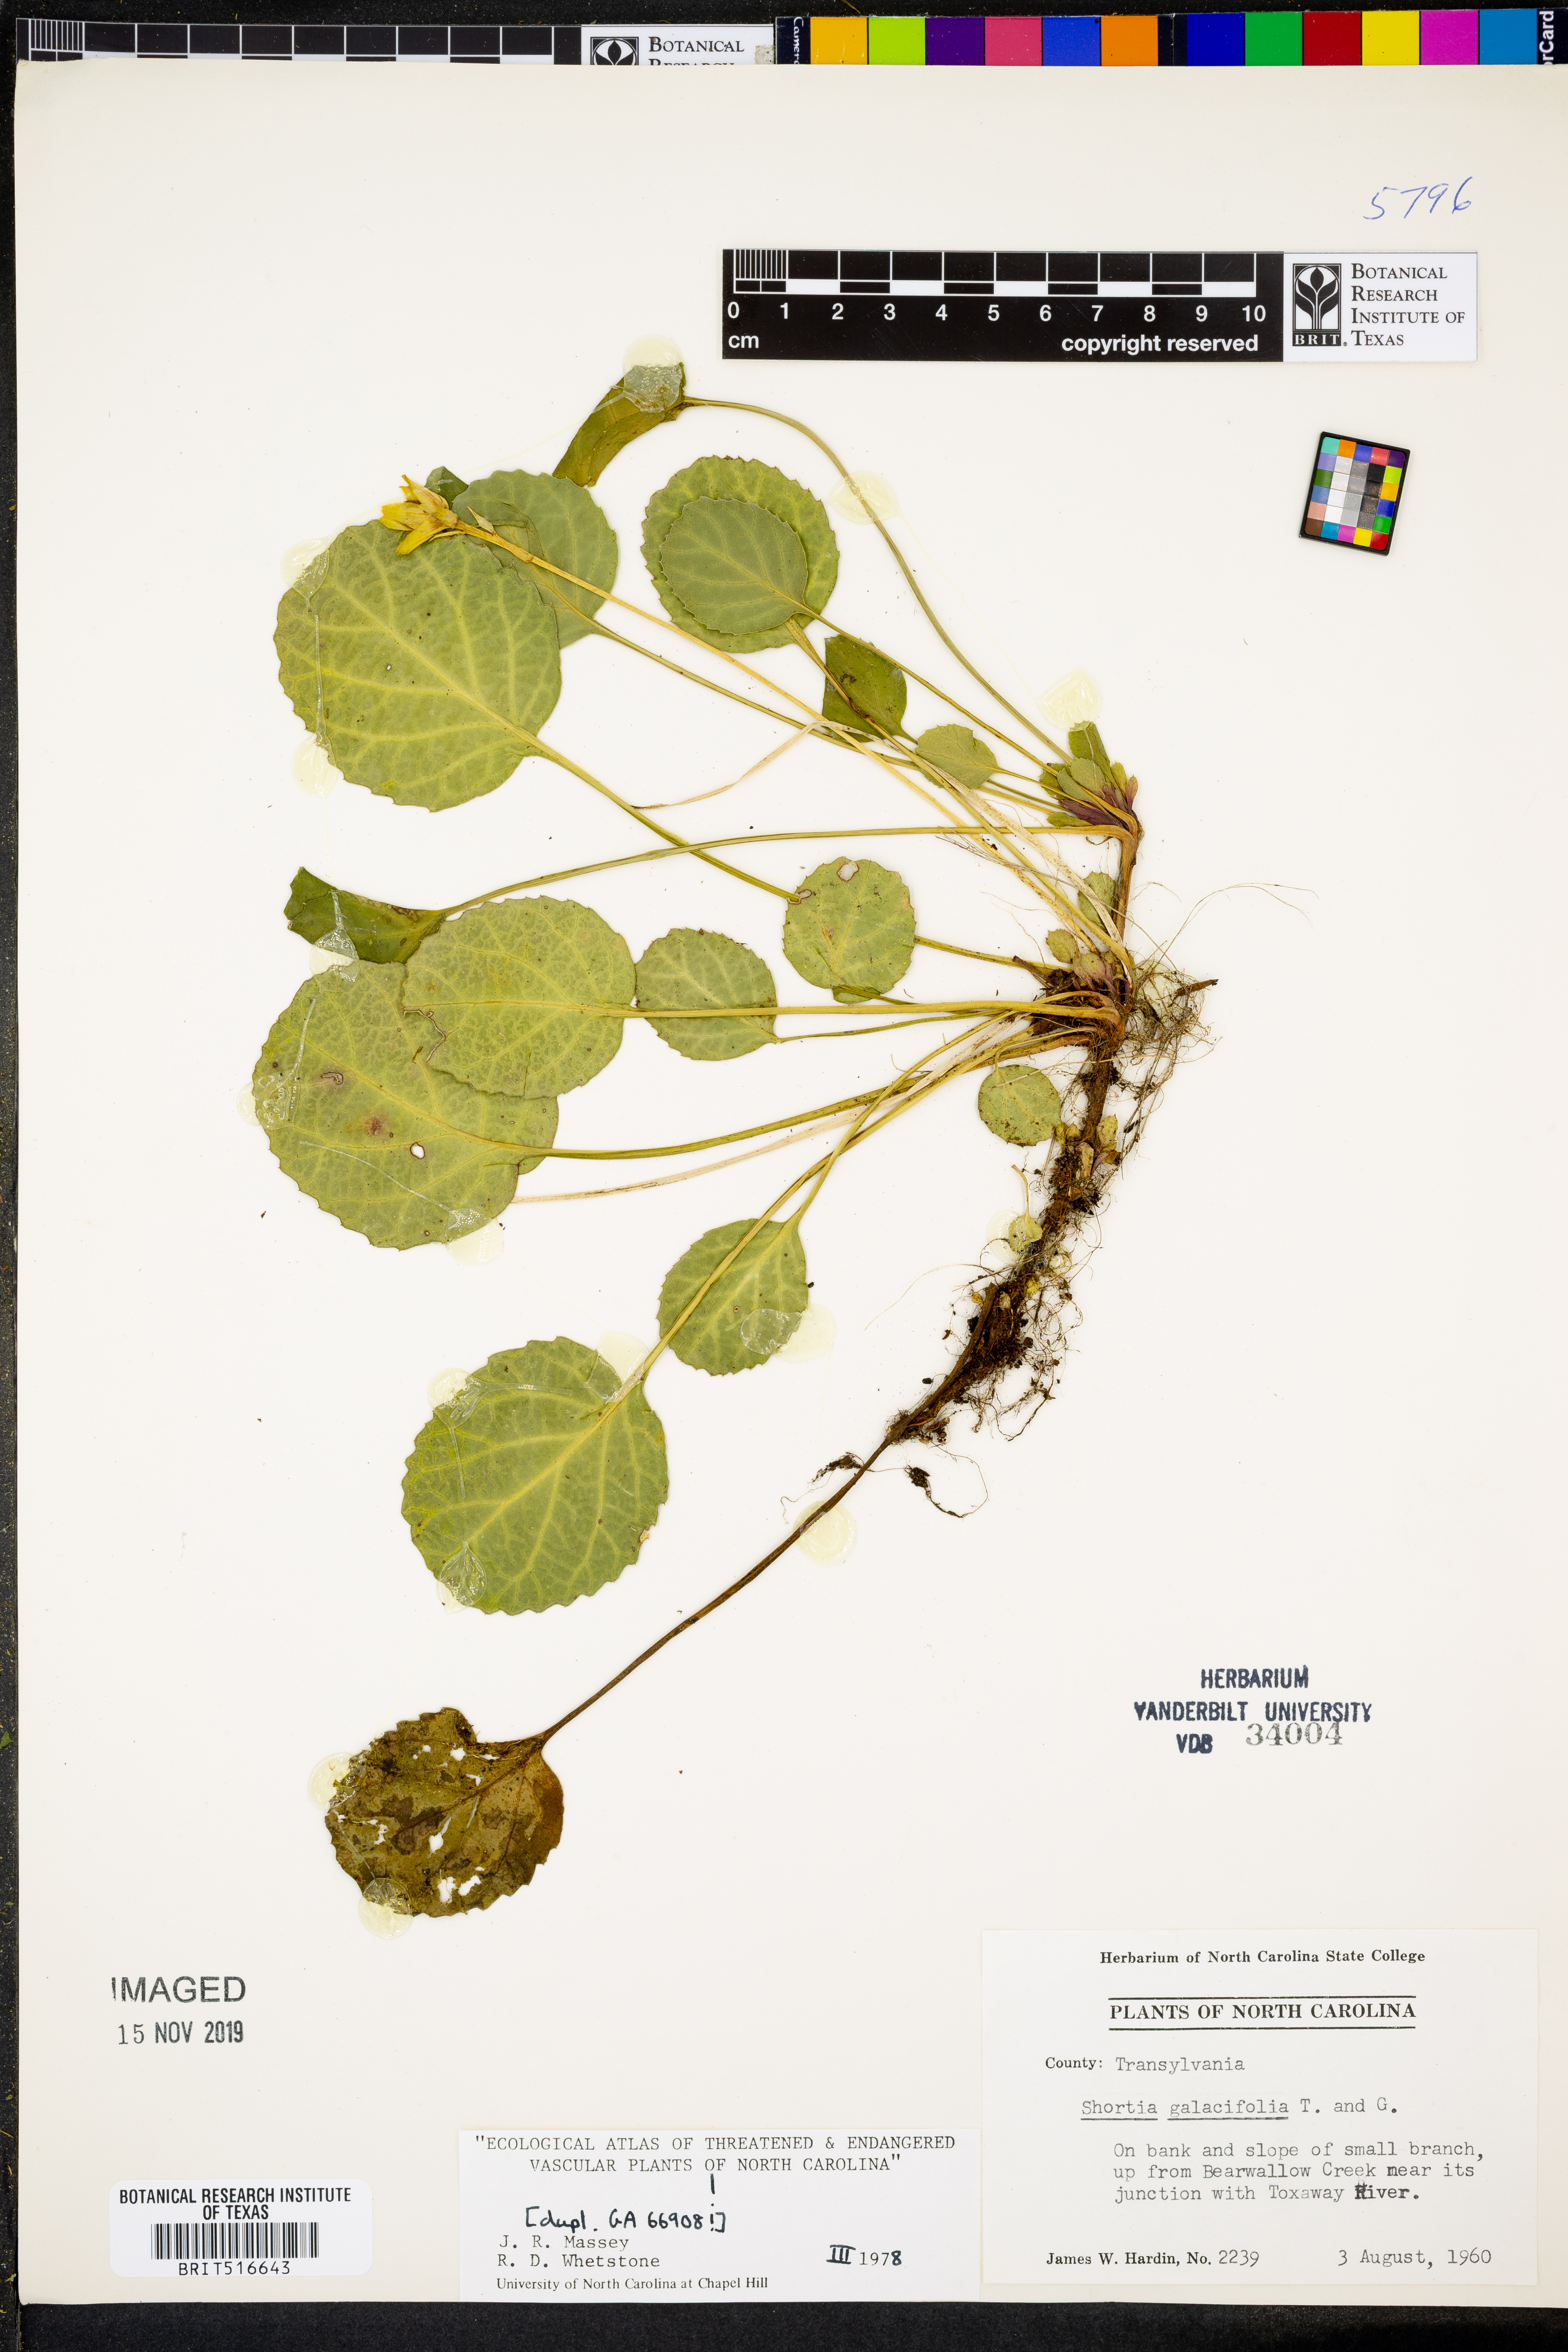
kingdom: Plantae
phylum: Tracheophyta
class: Magnoliopsida
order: Ericales
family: Diapensiaceae
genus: Shortia
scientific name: Shortia galacifolia
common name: Shortia
